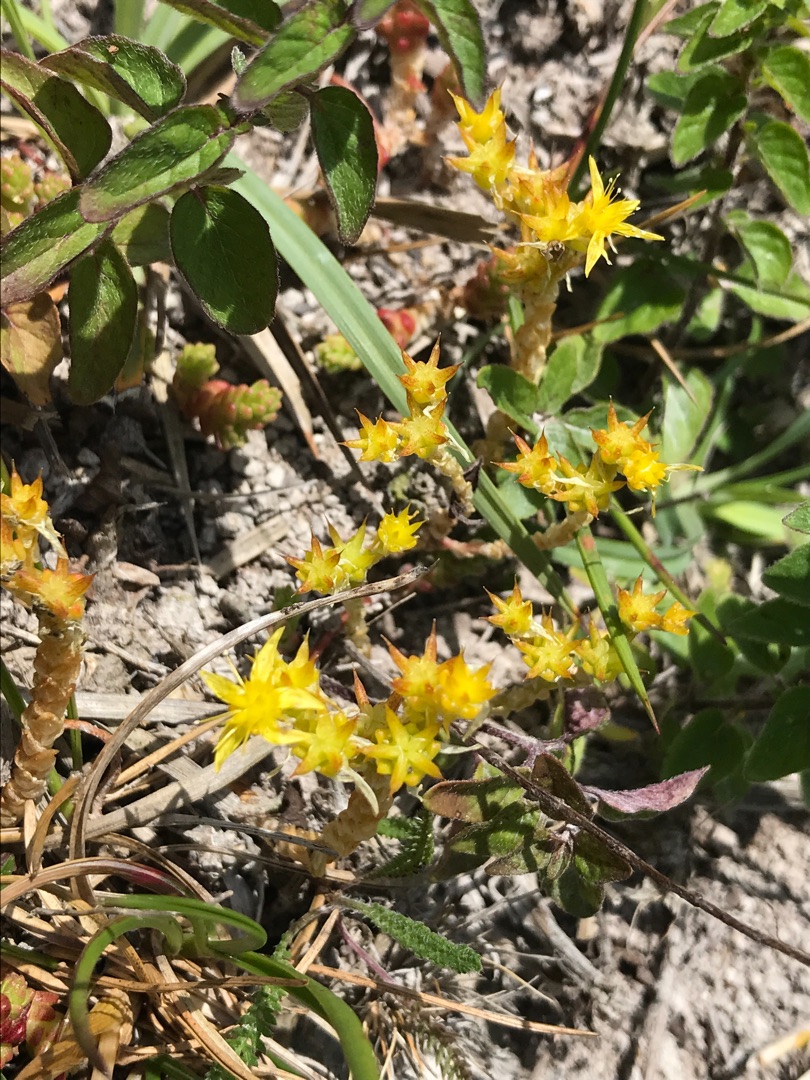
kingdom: Plantae
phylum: Tracheophyta
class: Magnoliopsida
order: Saxifragales
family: Crassulaceae
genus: Sedum
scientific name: Sedum acre
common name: Bidende stenurt
